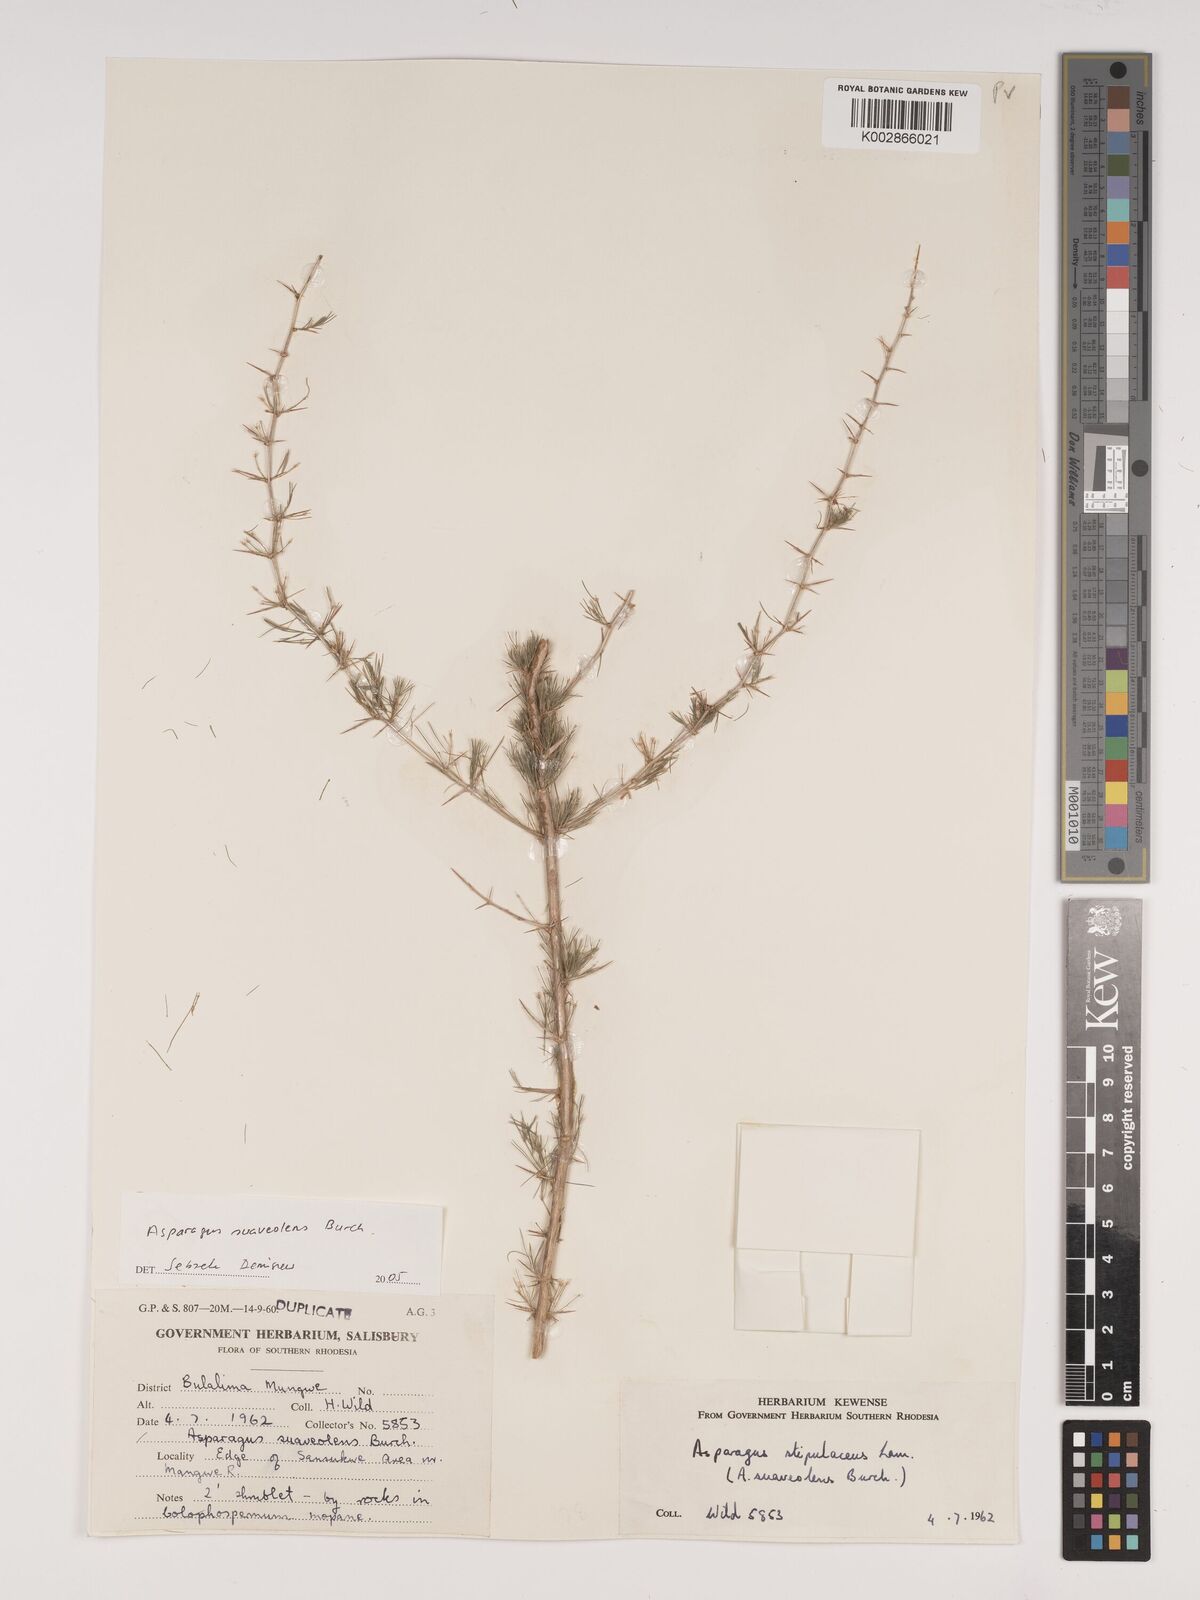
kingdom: Plantae
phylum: Tracheophyta
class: Liliopsida
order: Asparagales
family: Asparagaceae
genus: Asparagus
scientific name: Asparagus suaveolens
